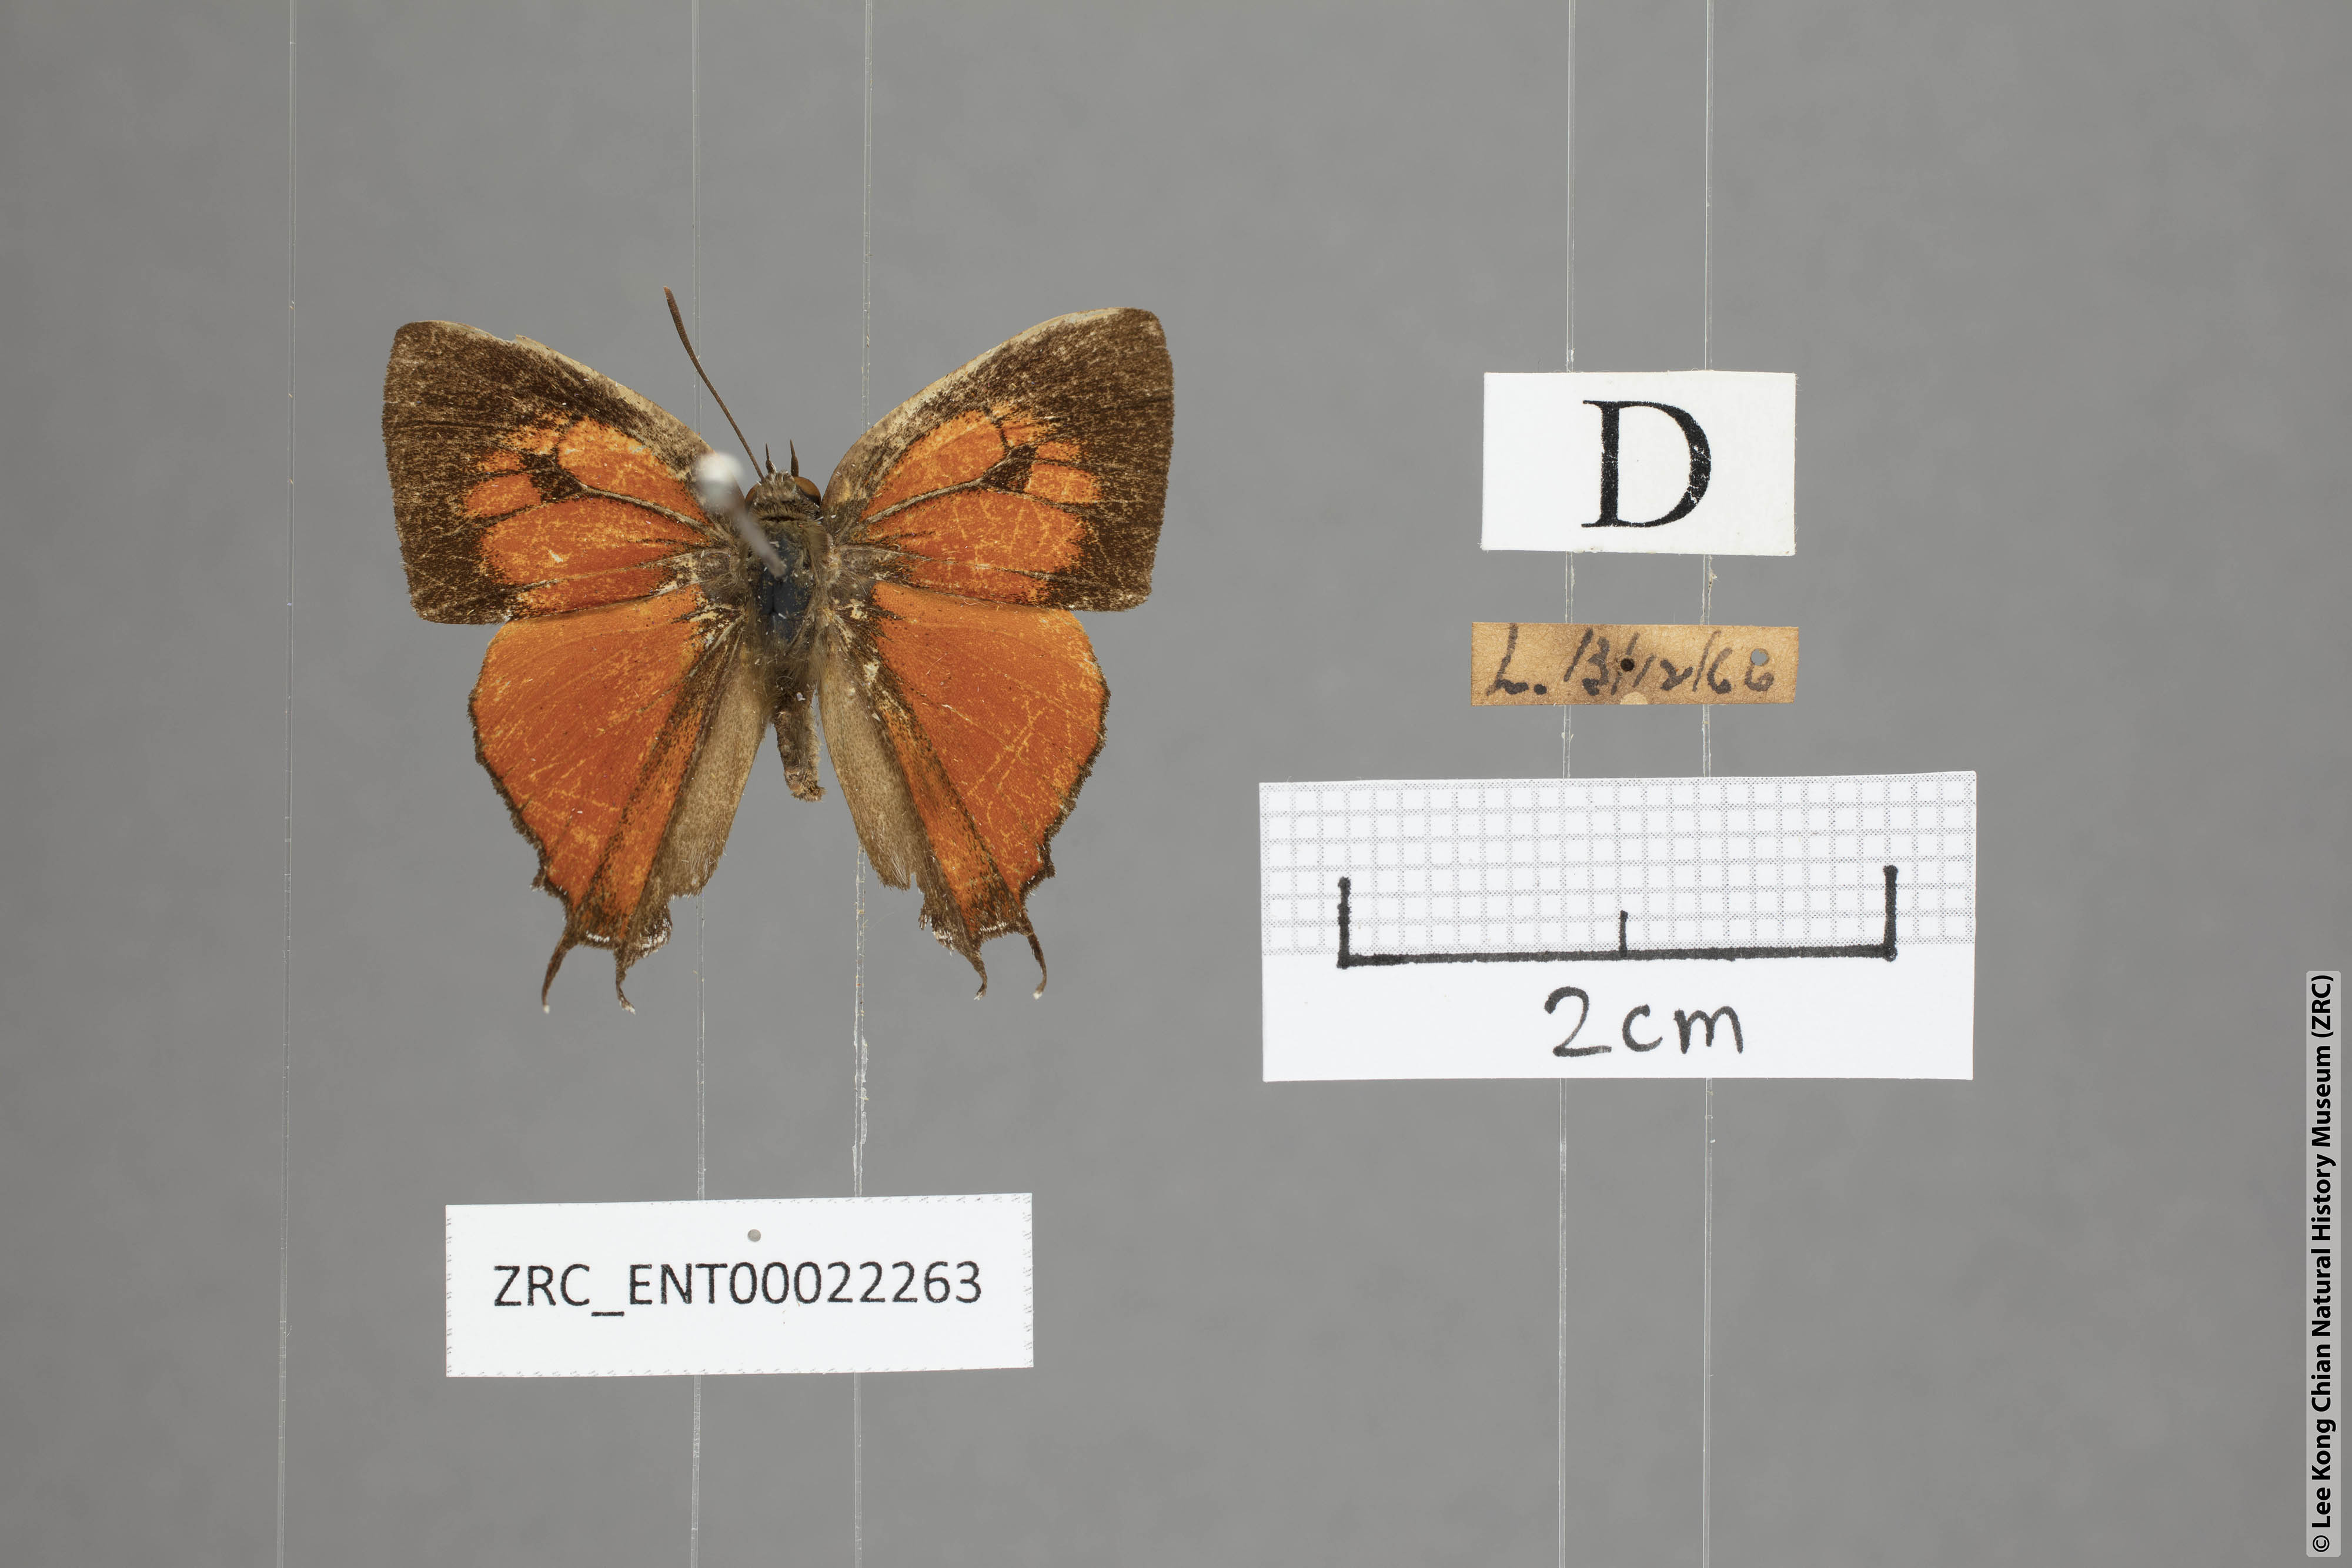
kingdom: Animalia
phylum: Arthropoda
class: Insecta
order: Lepidoptera
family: Lycaenidae
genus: Thamala
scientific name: Thamala marciana
